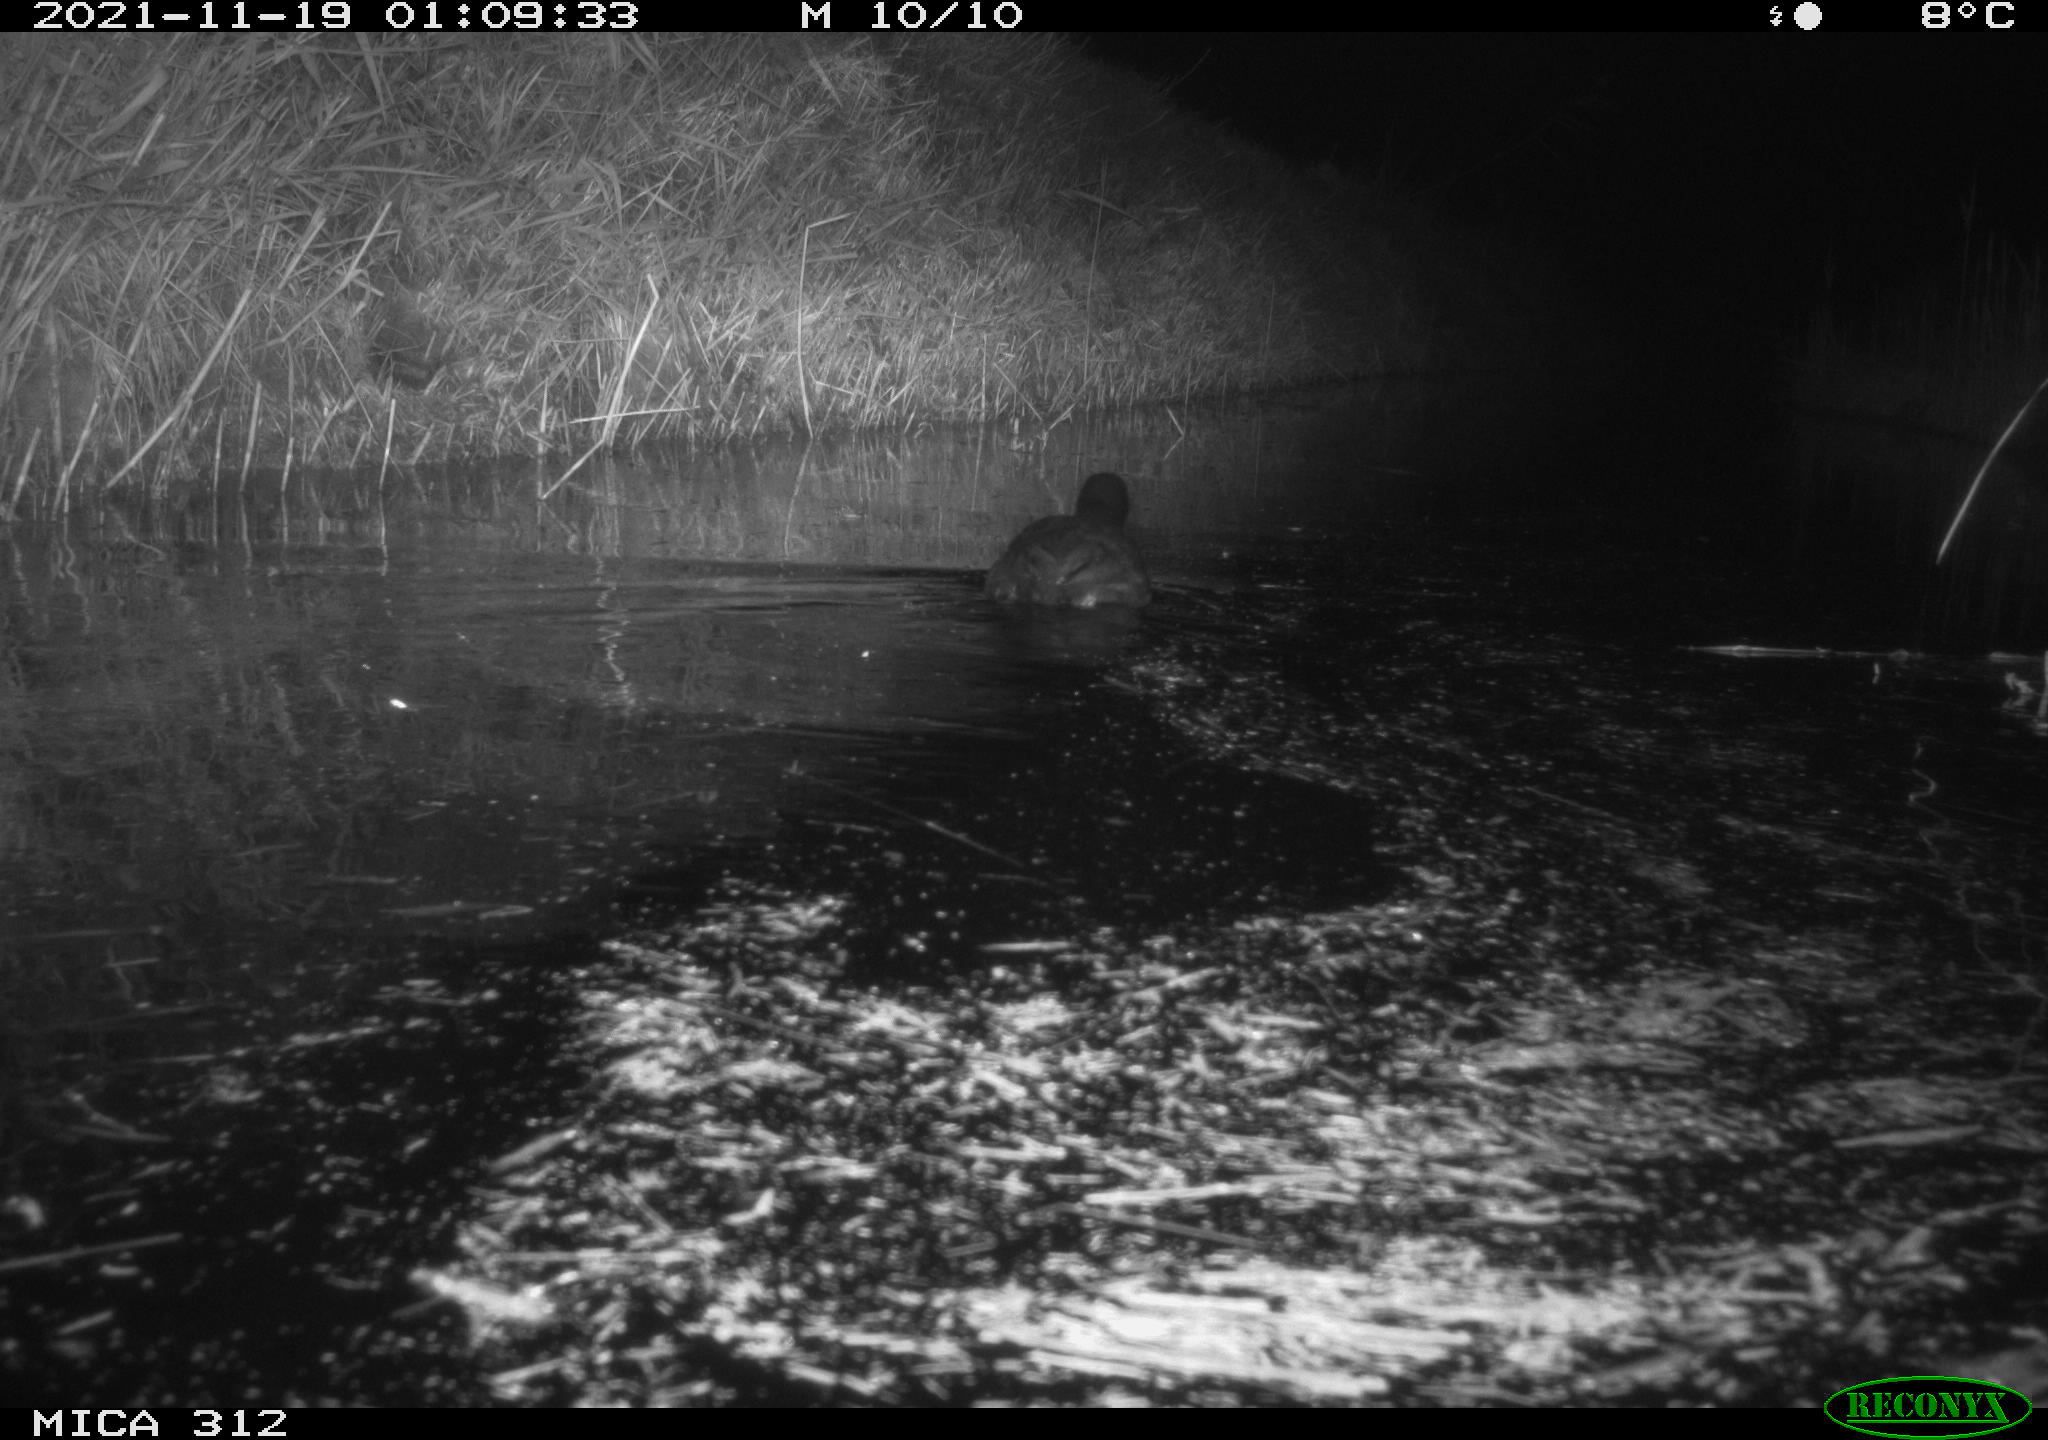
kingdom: Animalia
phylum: Chordata
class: Aves
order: Gruiformes
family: Rallidae
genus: Fulica
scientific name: Fulica atra
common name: Eurasian coot
